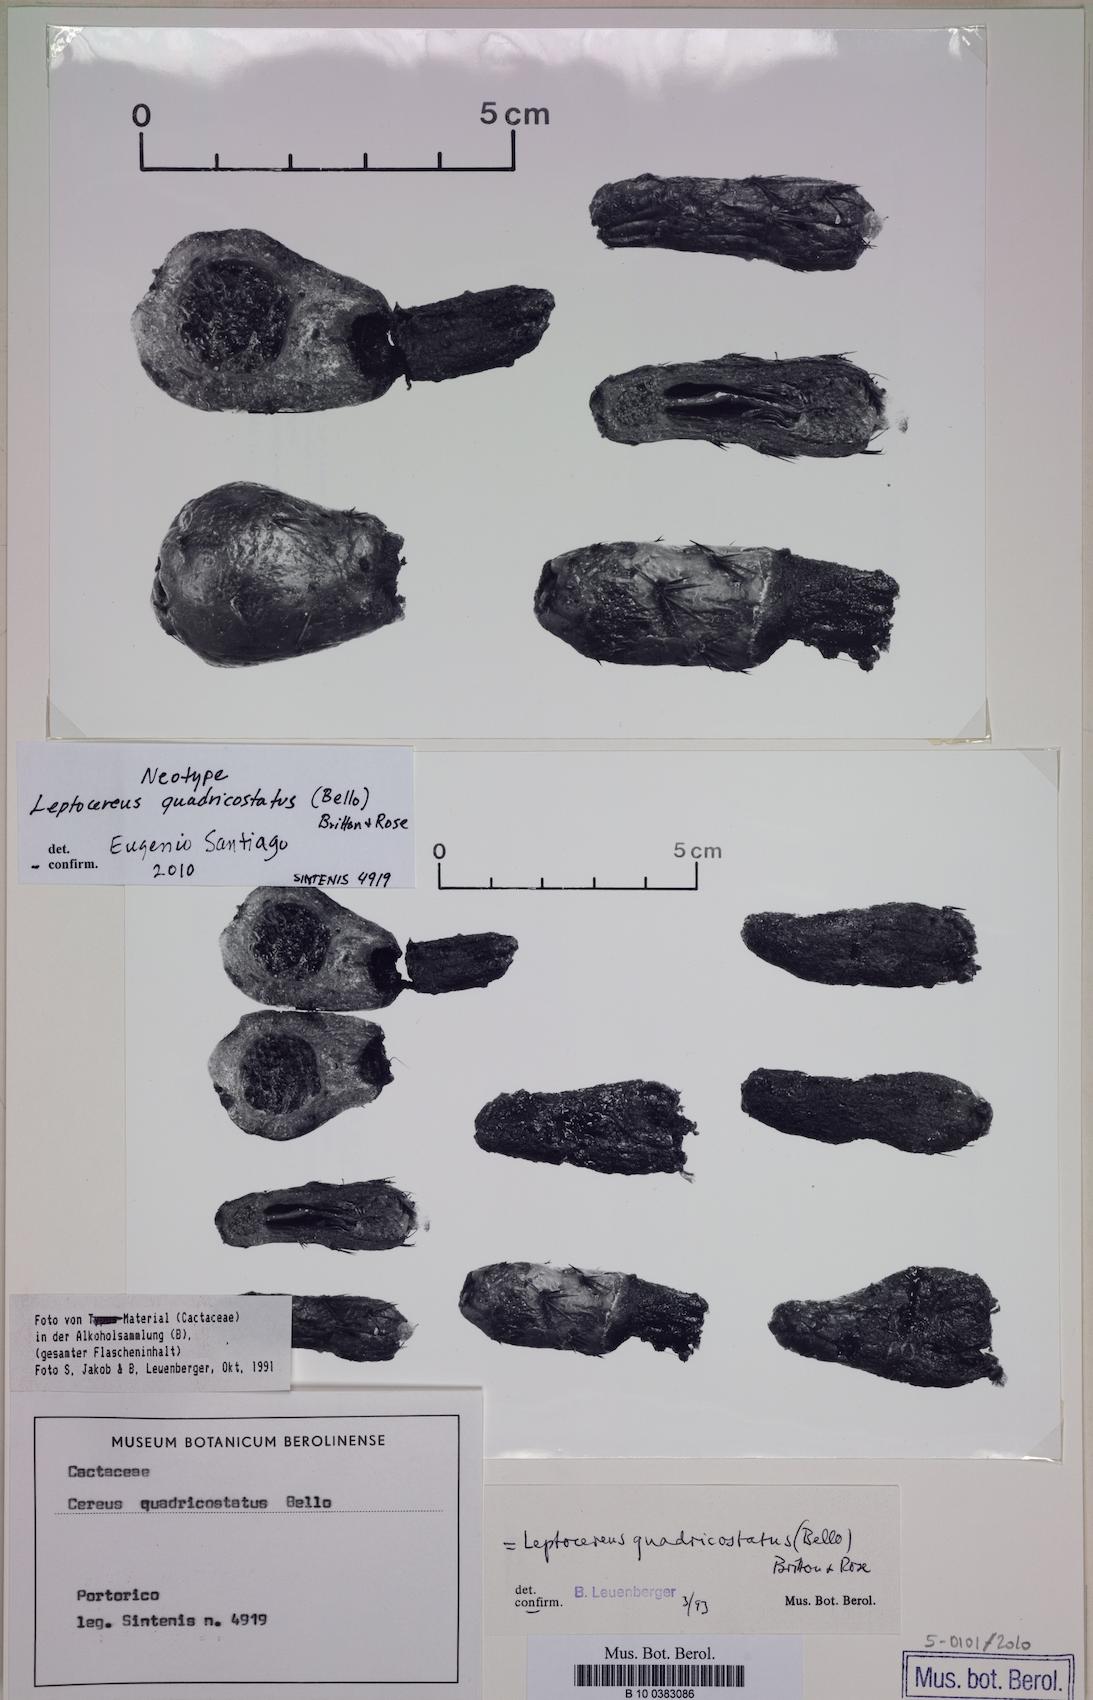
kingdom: Plantae
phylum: Tracheophyta
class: Magnoliopsida
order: Caryophyllales
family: Cactaceae
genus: Leptocereus
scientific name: Leptocereus quadricostatus
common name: Sebucan
